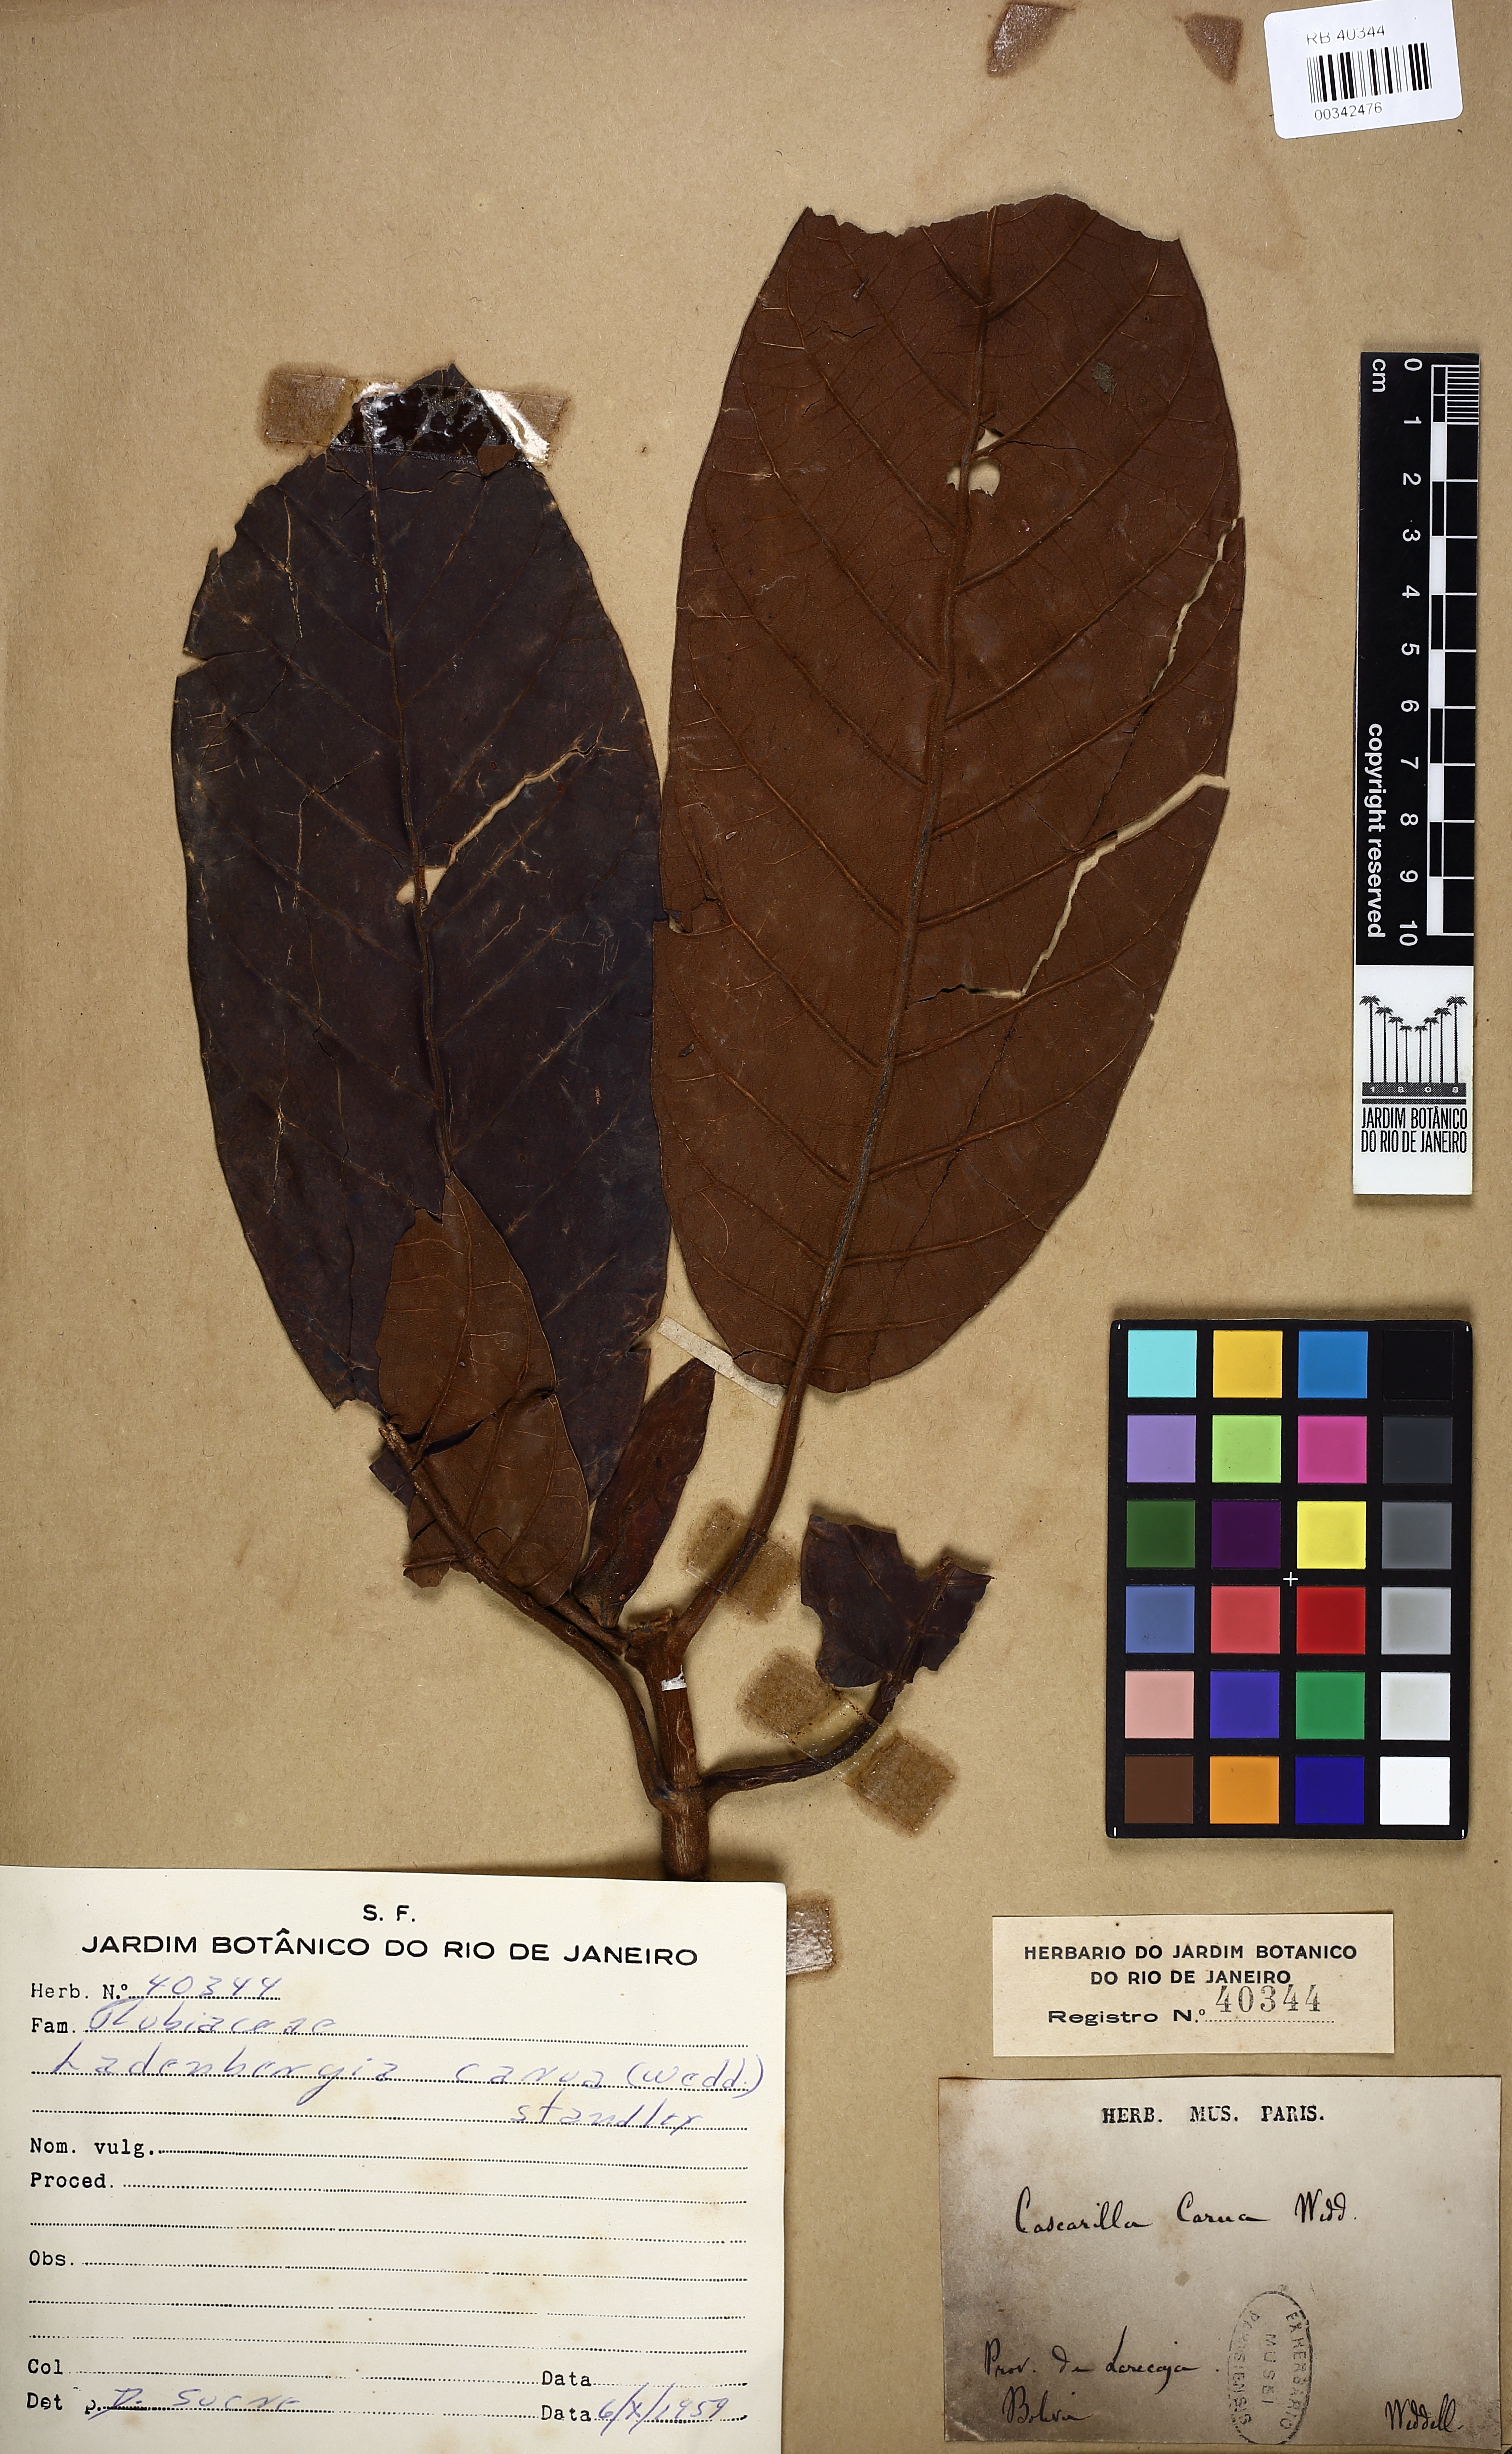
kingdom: Plantae
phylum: Tracheophyta
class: Magnoliopsida
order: Gentianales
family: Rubiaceae
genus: Ladenbergia
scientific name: Ladenbergia carua
